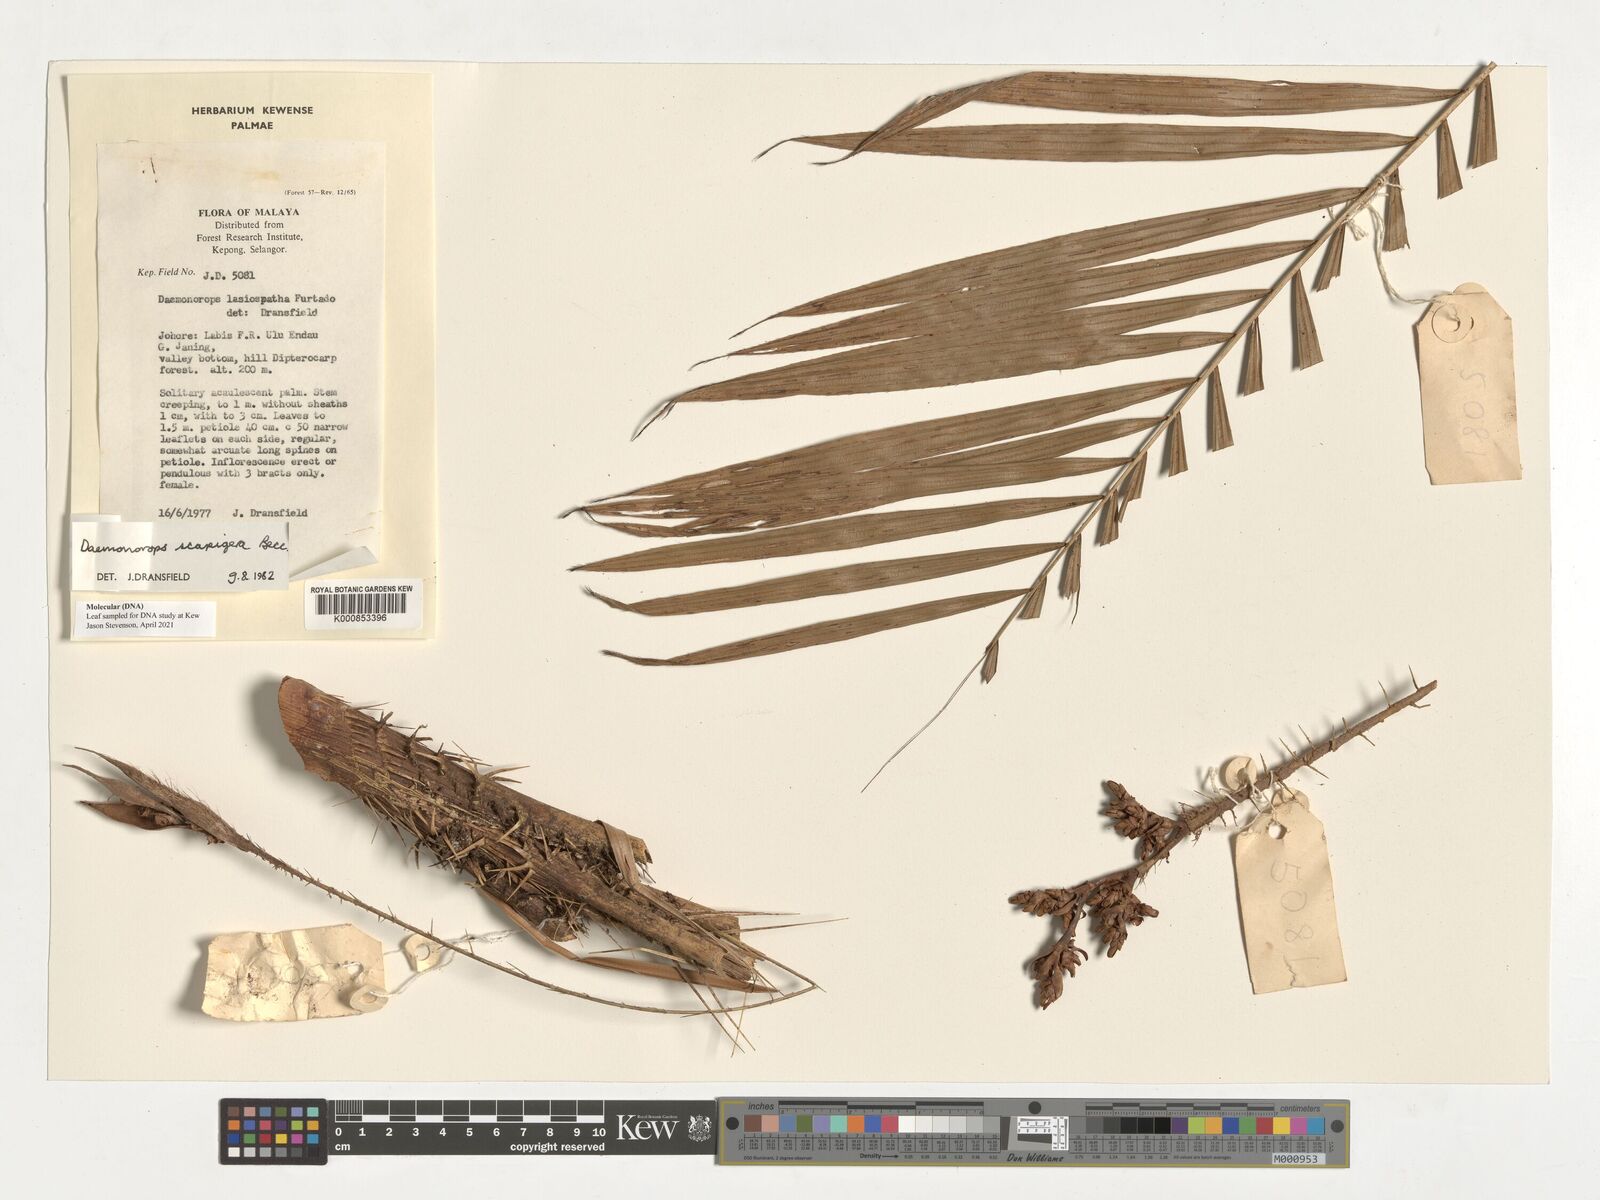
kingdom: Plantae
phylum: Tracheophyta
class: Liliopsida
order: Arecales
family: Arecaceae
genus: Calamus
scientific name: Calamus scapigerus
